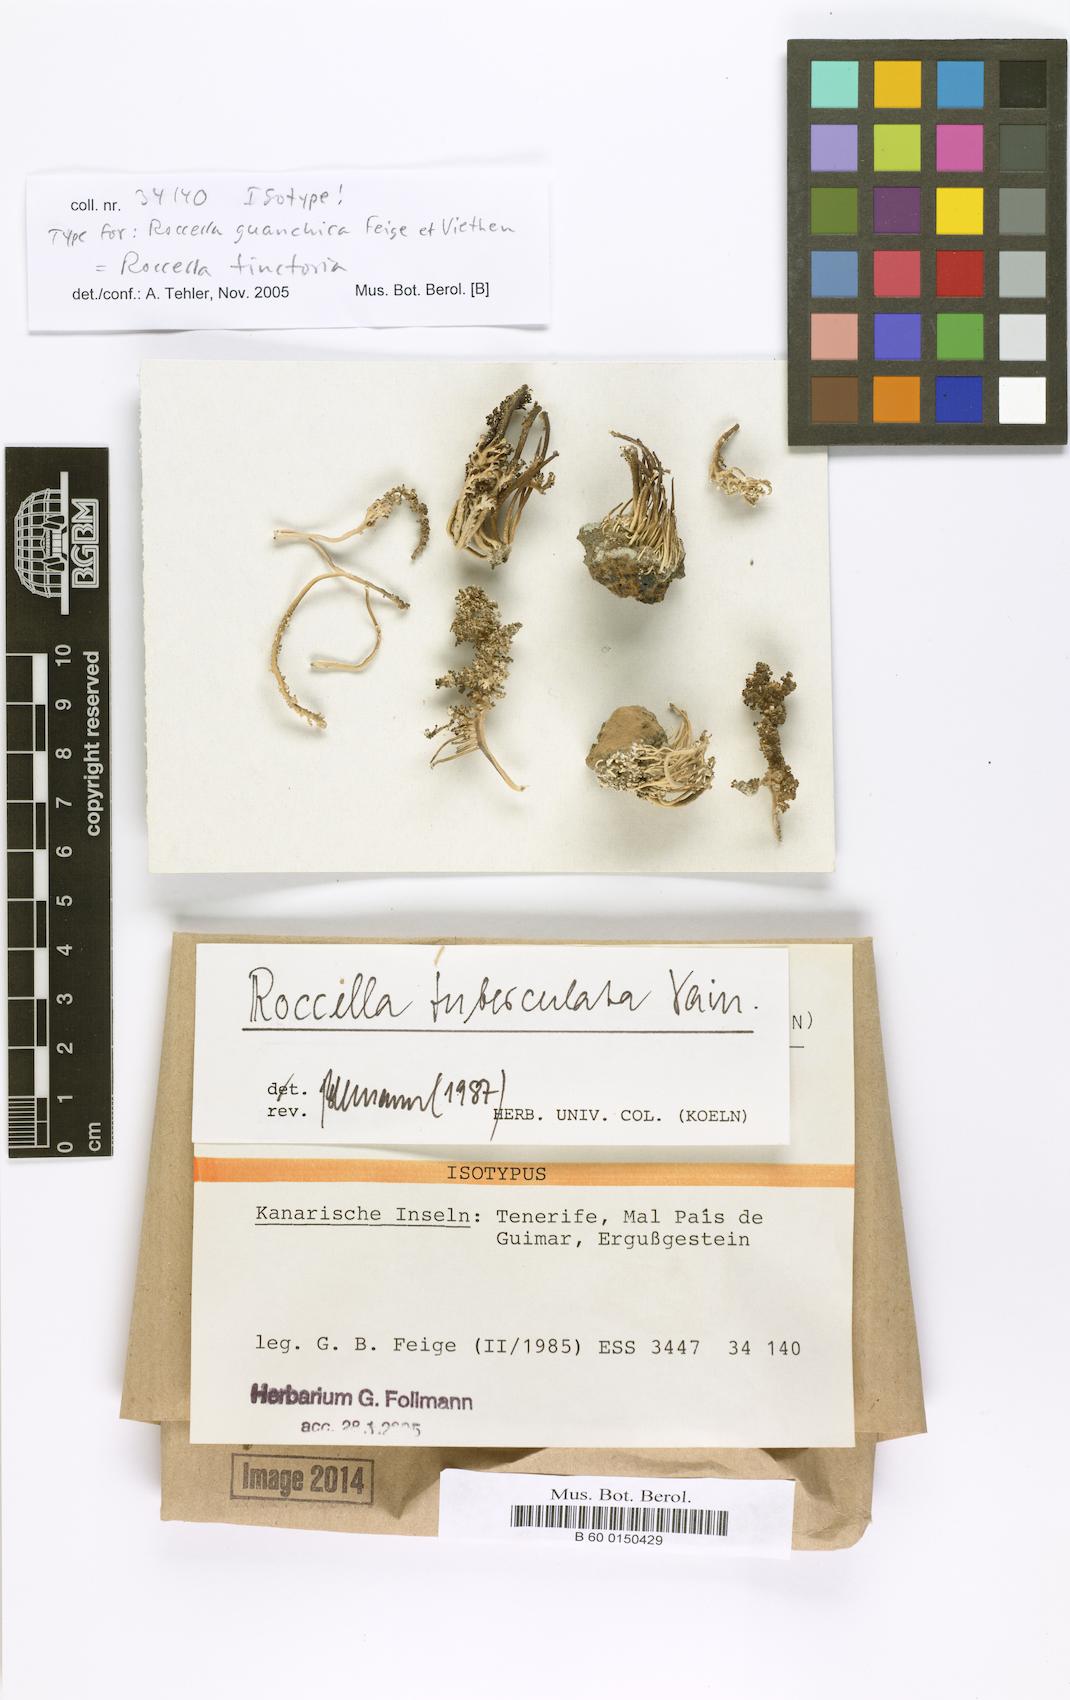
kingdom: Fungi
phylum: Ascomycota
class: Arthoniomycetes
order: Arthoniales
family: Roccellaceae
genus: Roccella
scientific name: Roccella phycopsis
